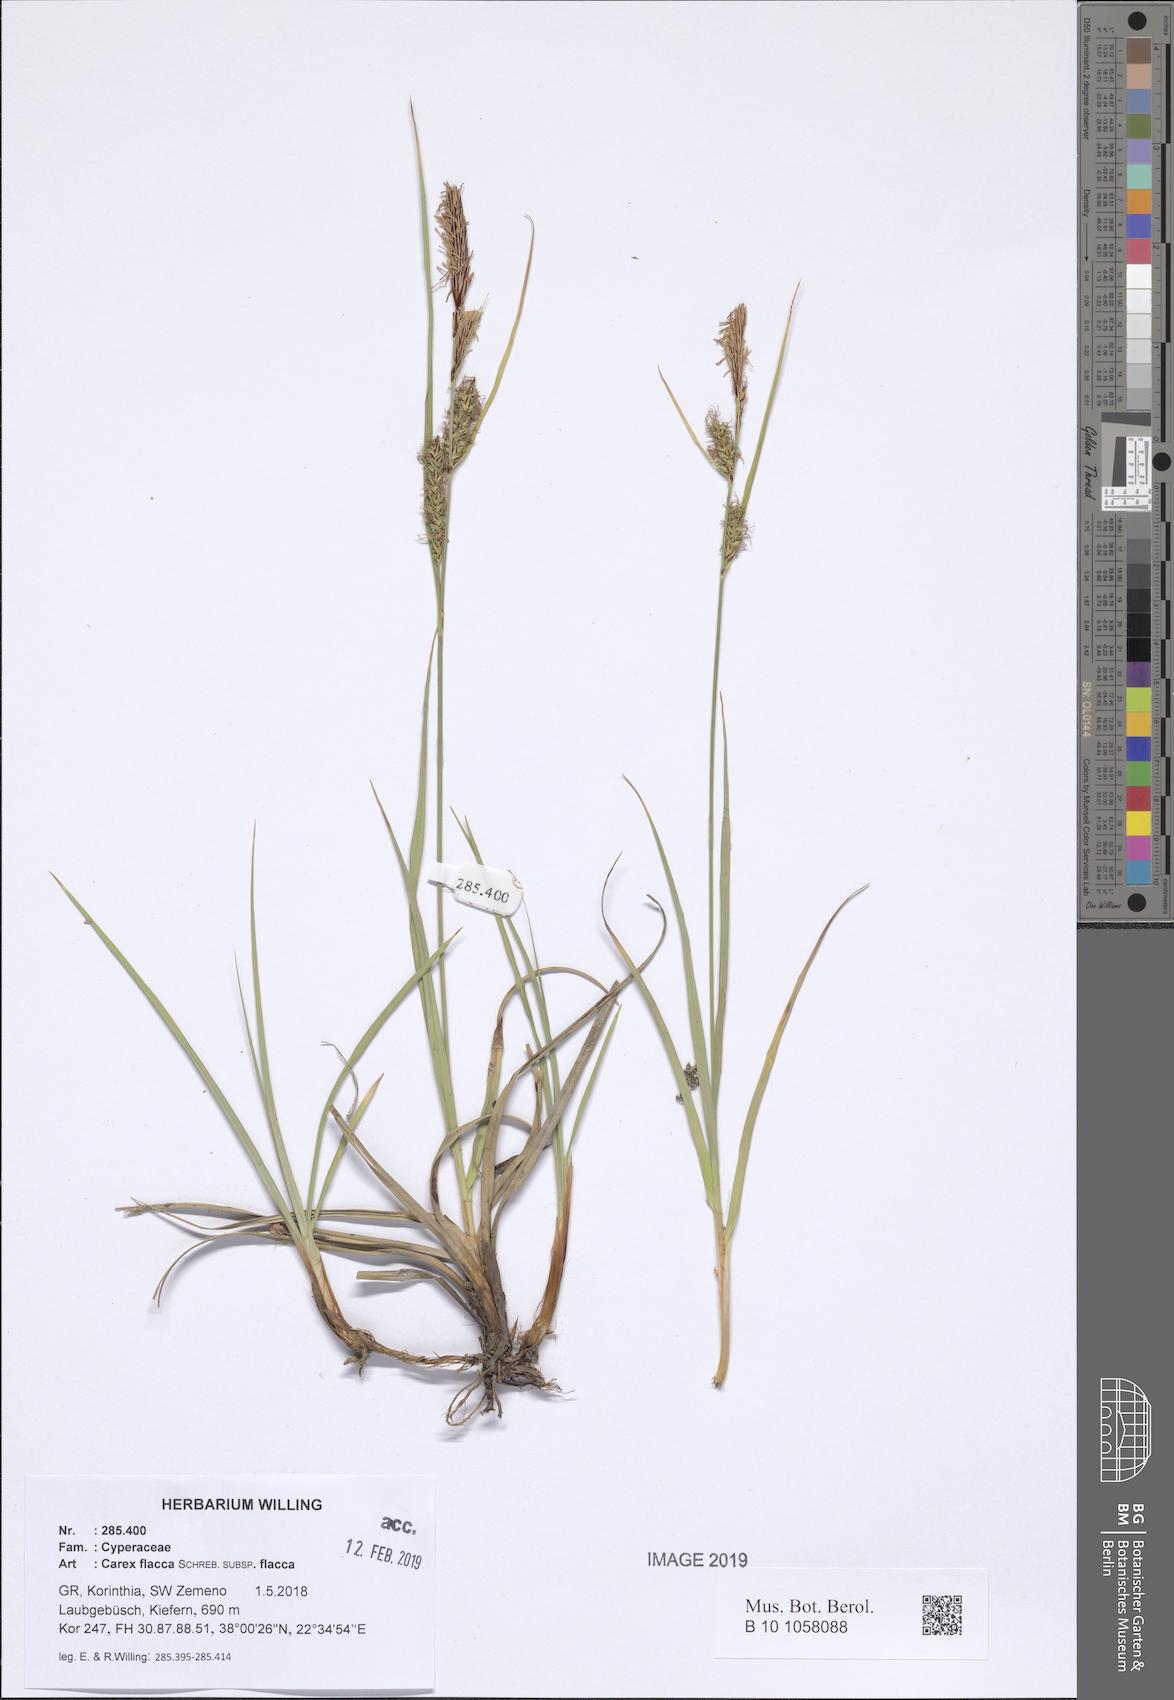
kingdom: Plantae
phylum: Tracheophyta
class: Liliopsida
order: Poales
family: Cyperaceae
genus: Carex
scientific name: Carex flacca
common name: Glaucous sedge
